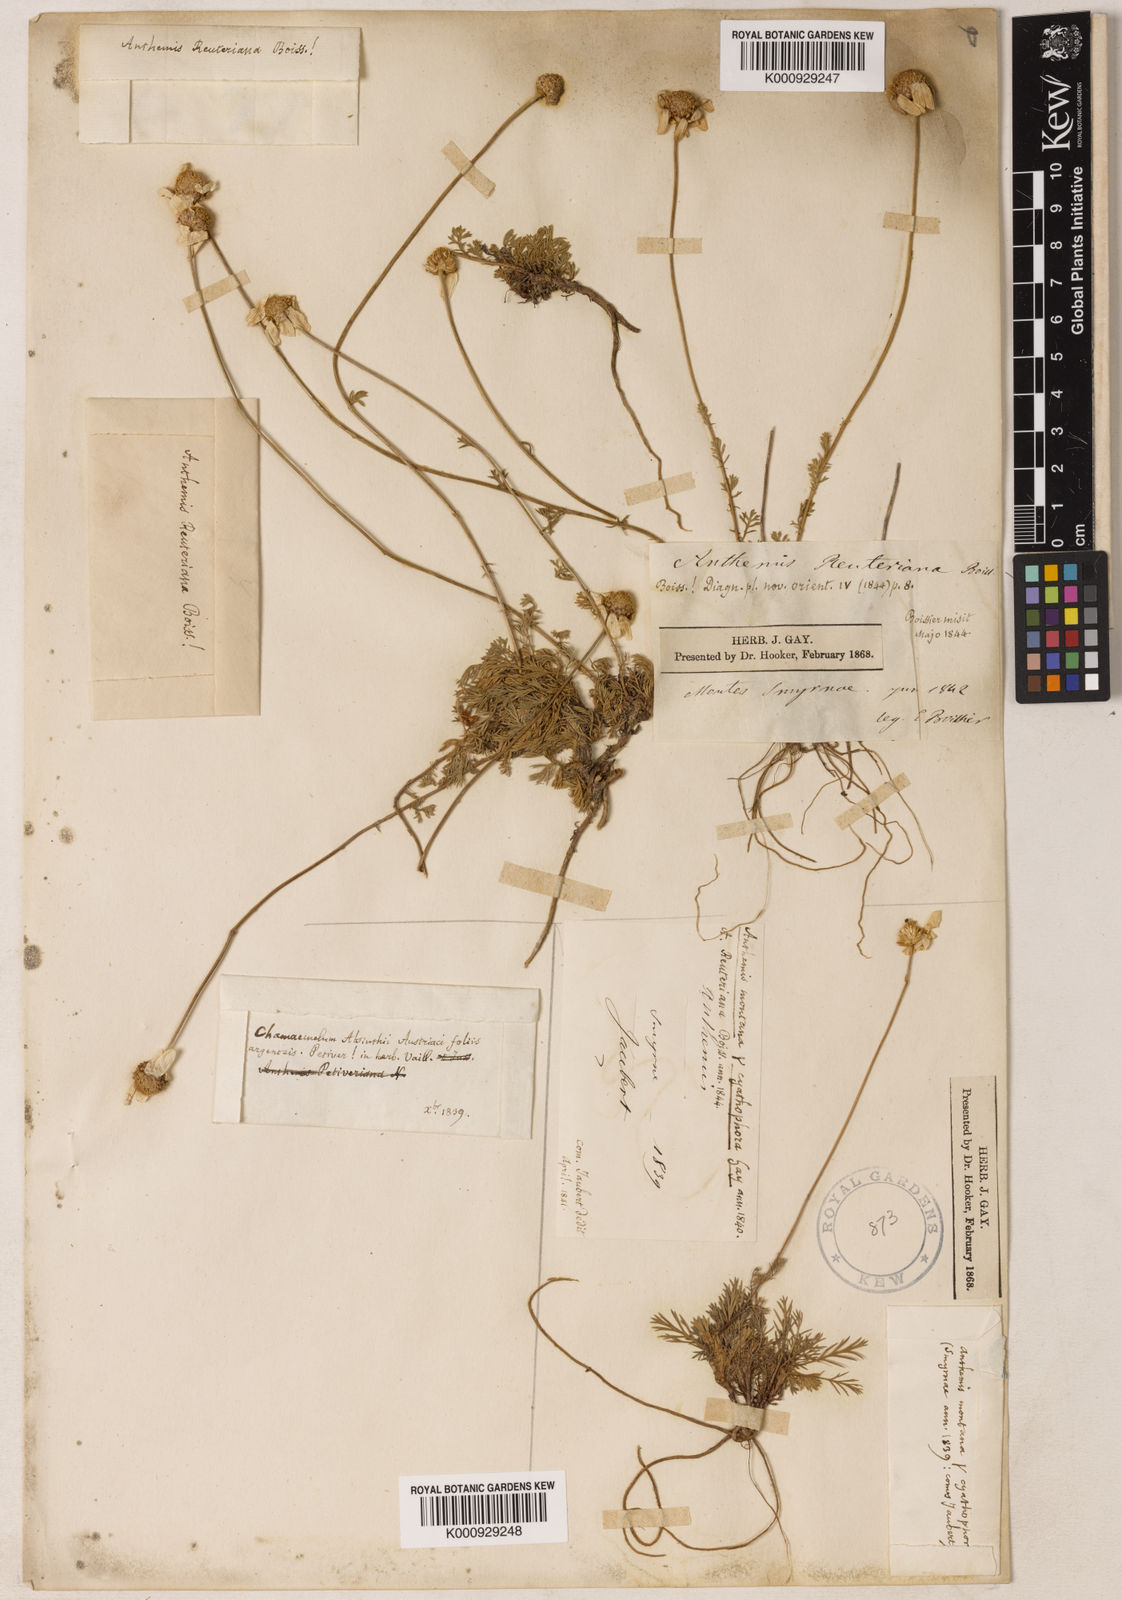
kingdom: Plantae
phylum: Tracheophyta
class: Magnoliopsida
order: Asterales
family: Asteraceae
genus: Anthemis
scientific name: Anthemis cretica
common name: Mountain dog-daisy
